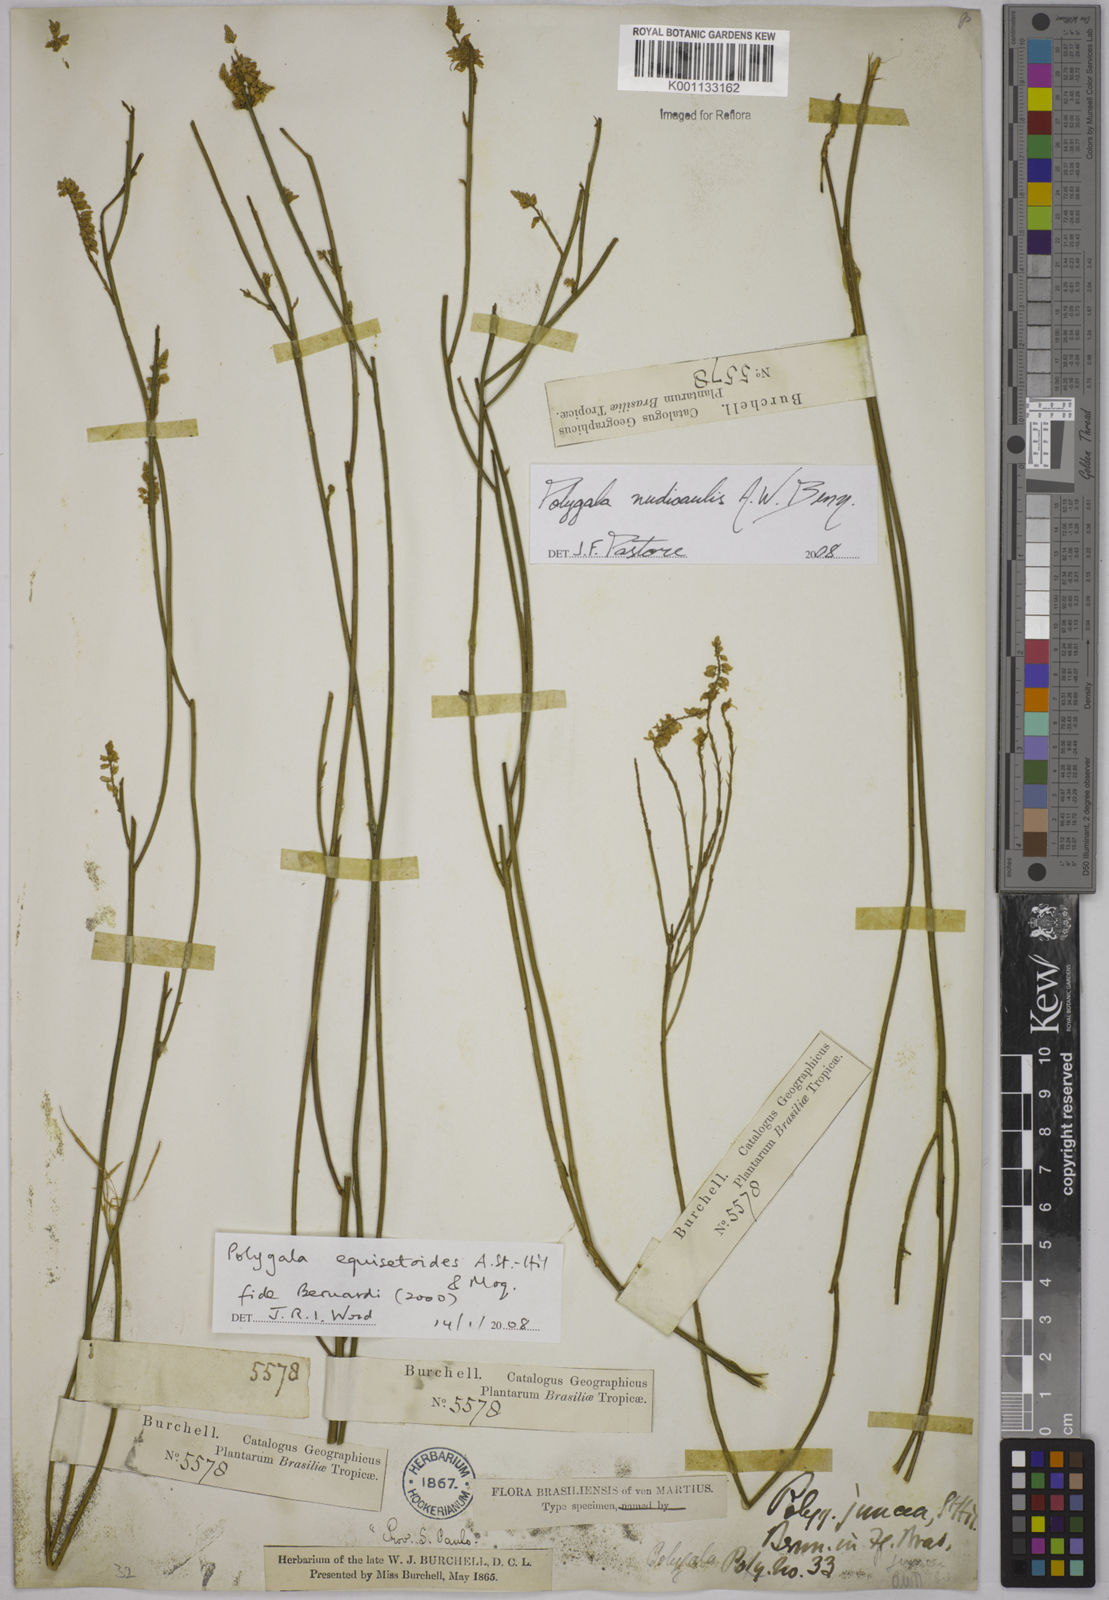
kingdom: Plantae
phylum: Tracheophyta
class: Magnoliopsida
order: Fabales
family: Polygalaceae
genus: Polygala
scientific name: Polygala nudicaulis
